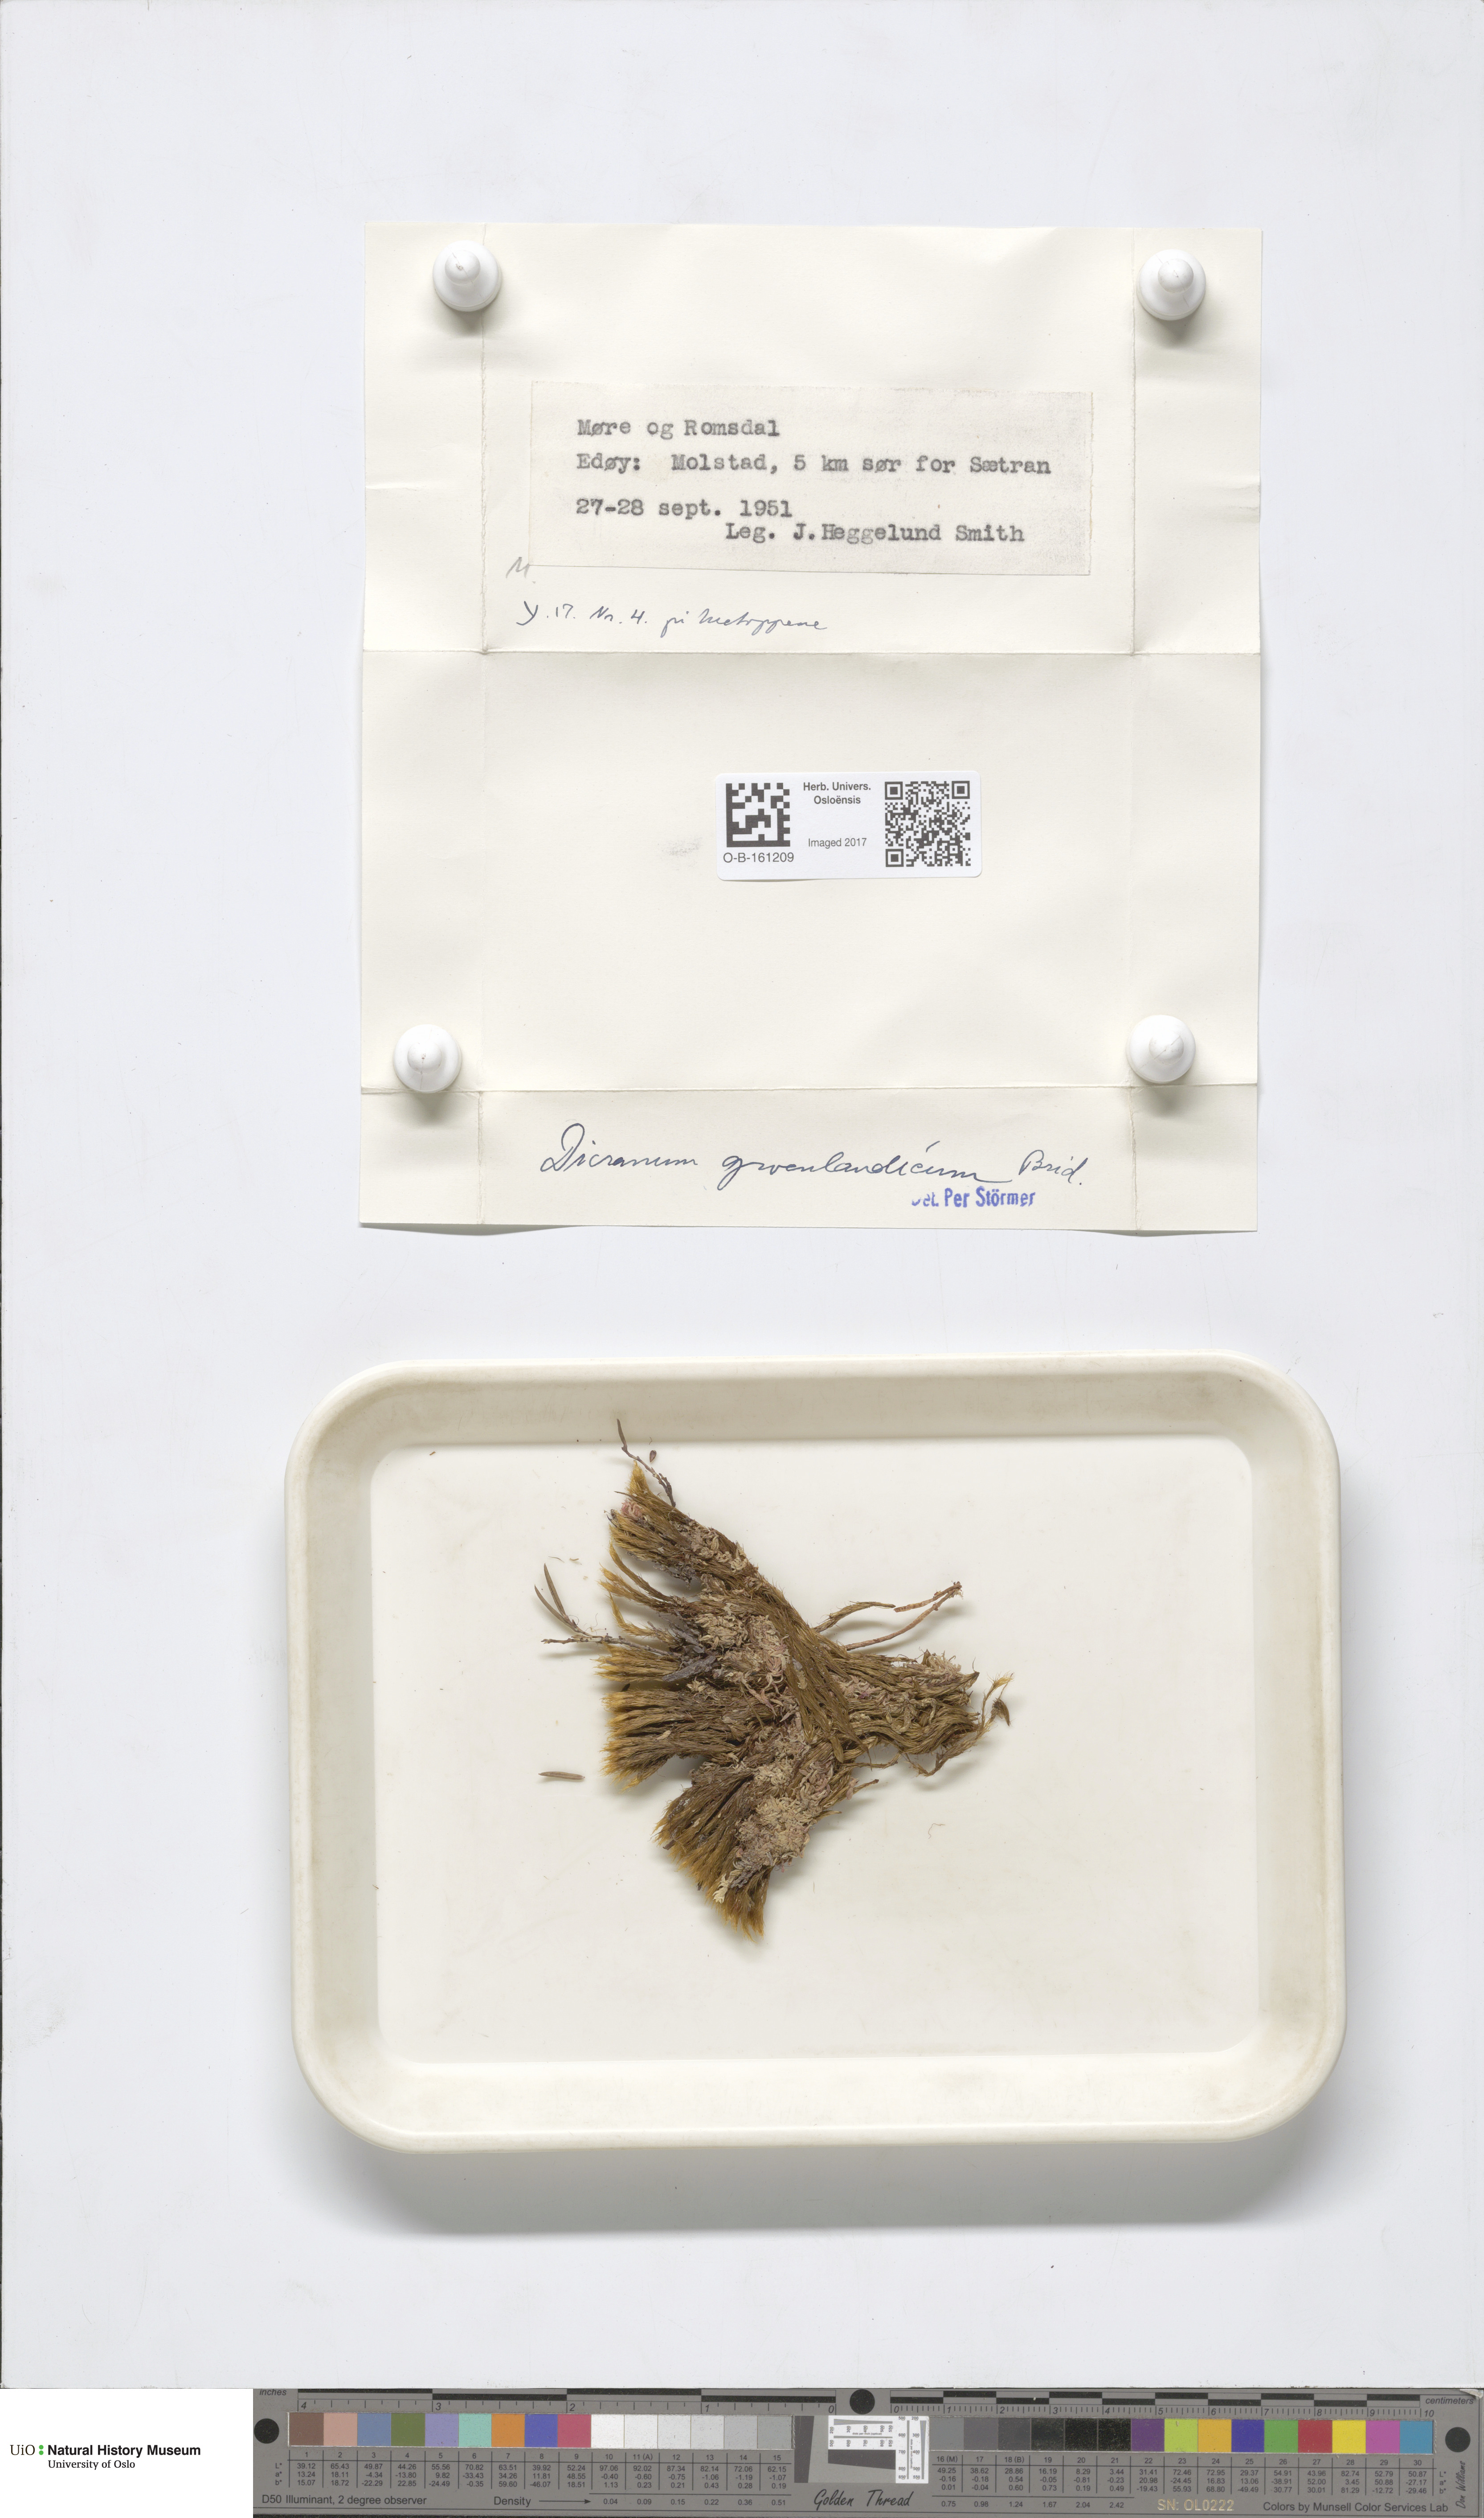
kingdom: Plantae
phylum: Bryophyta
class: Bryopsida
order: Dicranales
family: Dicranaceae
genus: Dicranum
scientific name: Dicranum groenlandicum
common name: Greenland broom moss
